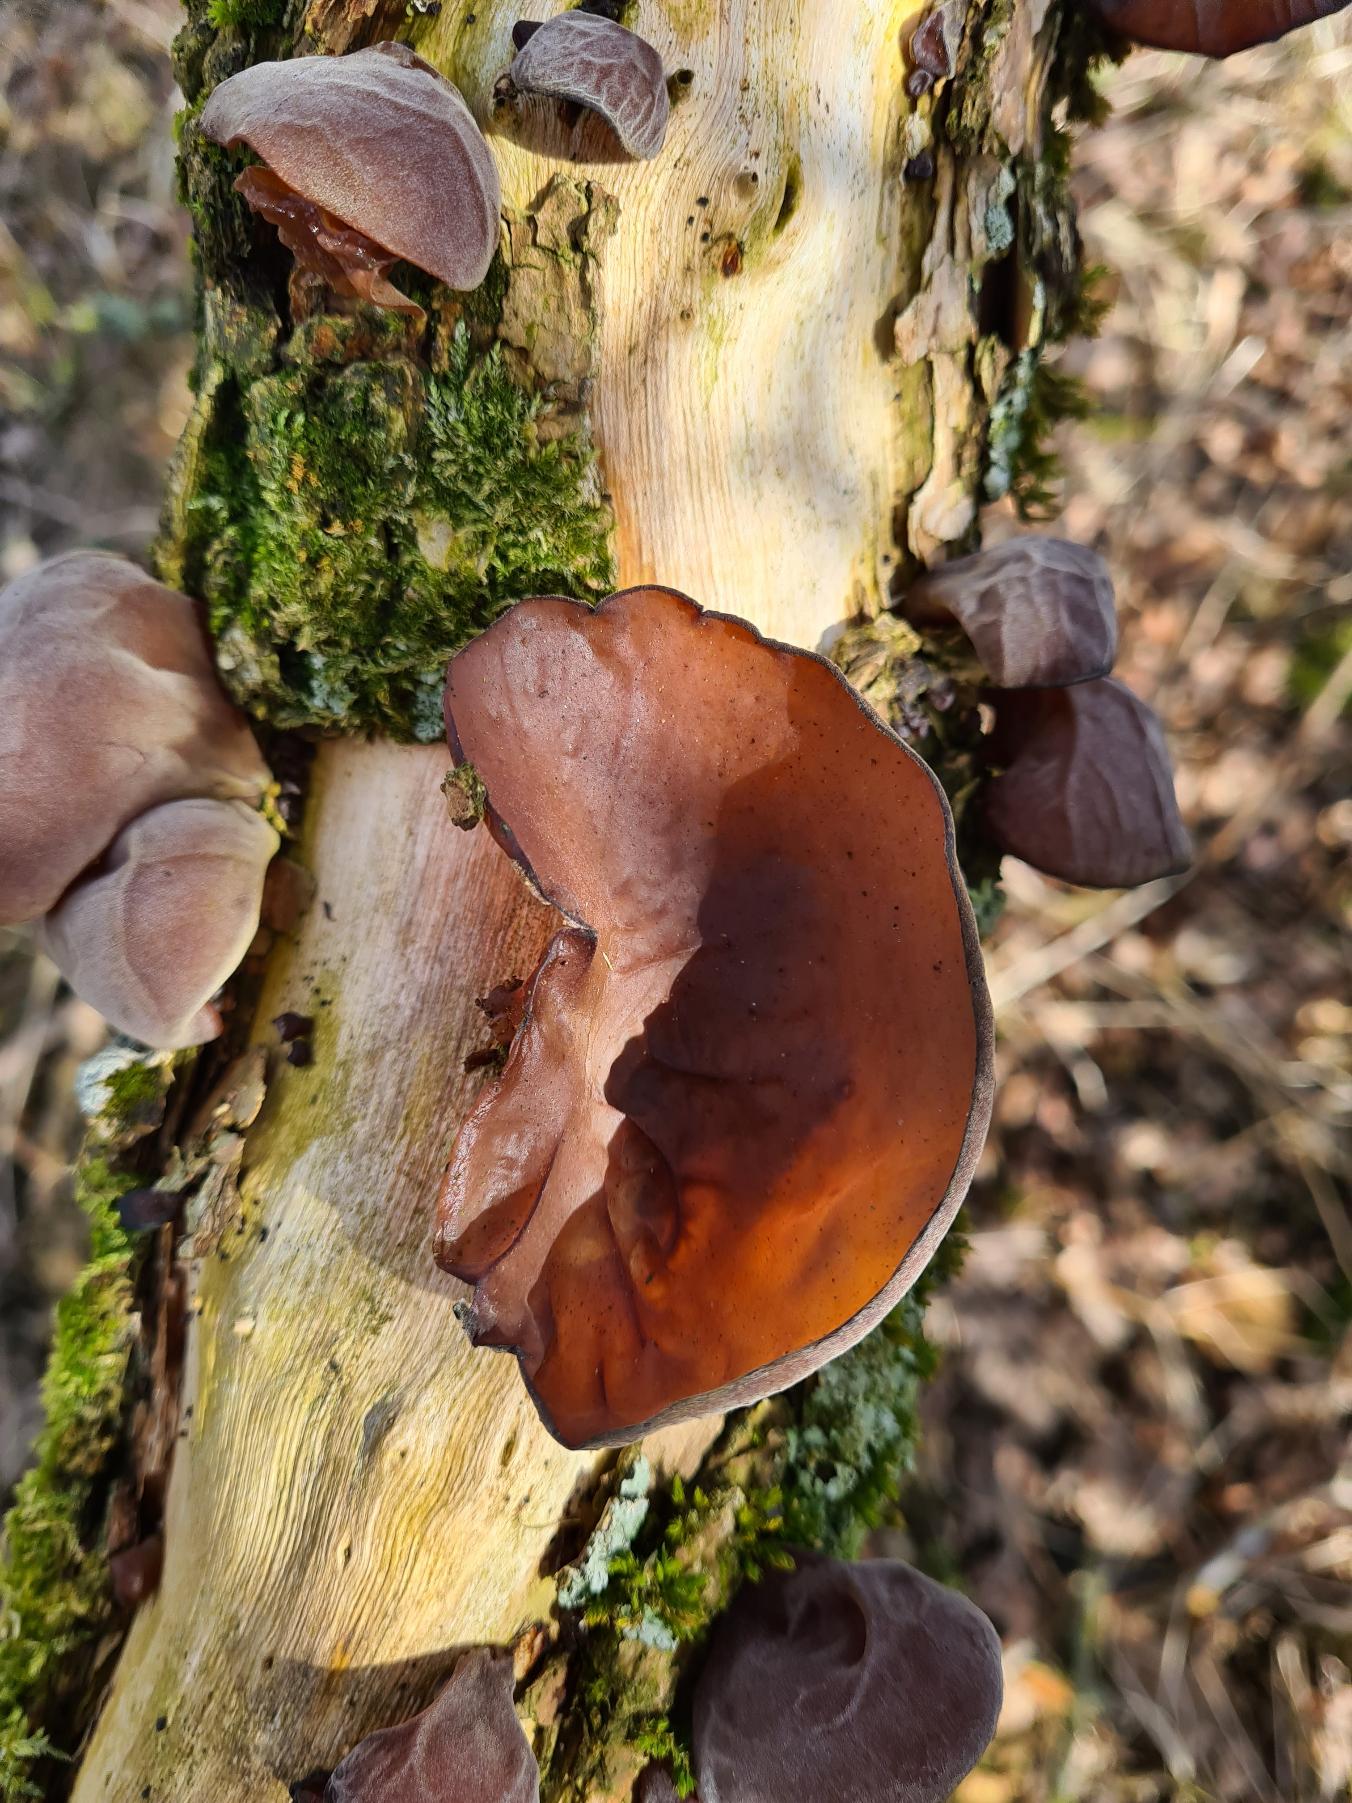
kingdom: Fungi
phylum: Basidiomycota
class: Agaricomycetes
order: Auriculariales
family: Auriculariaceae
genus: Auricularia
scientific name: Auricularia auricula-judae
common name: Almindelig judasøre
